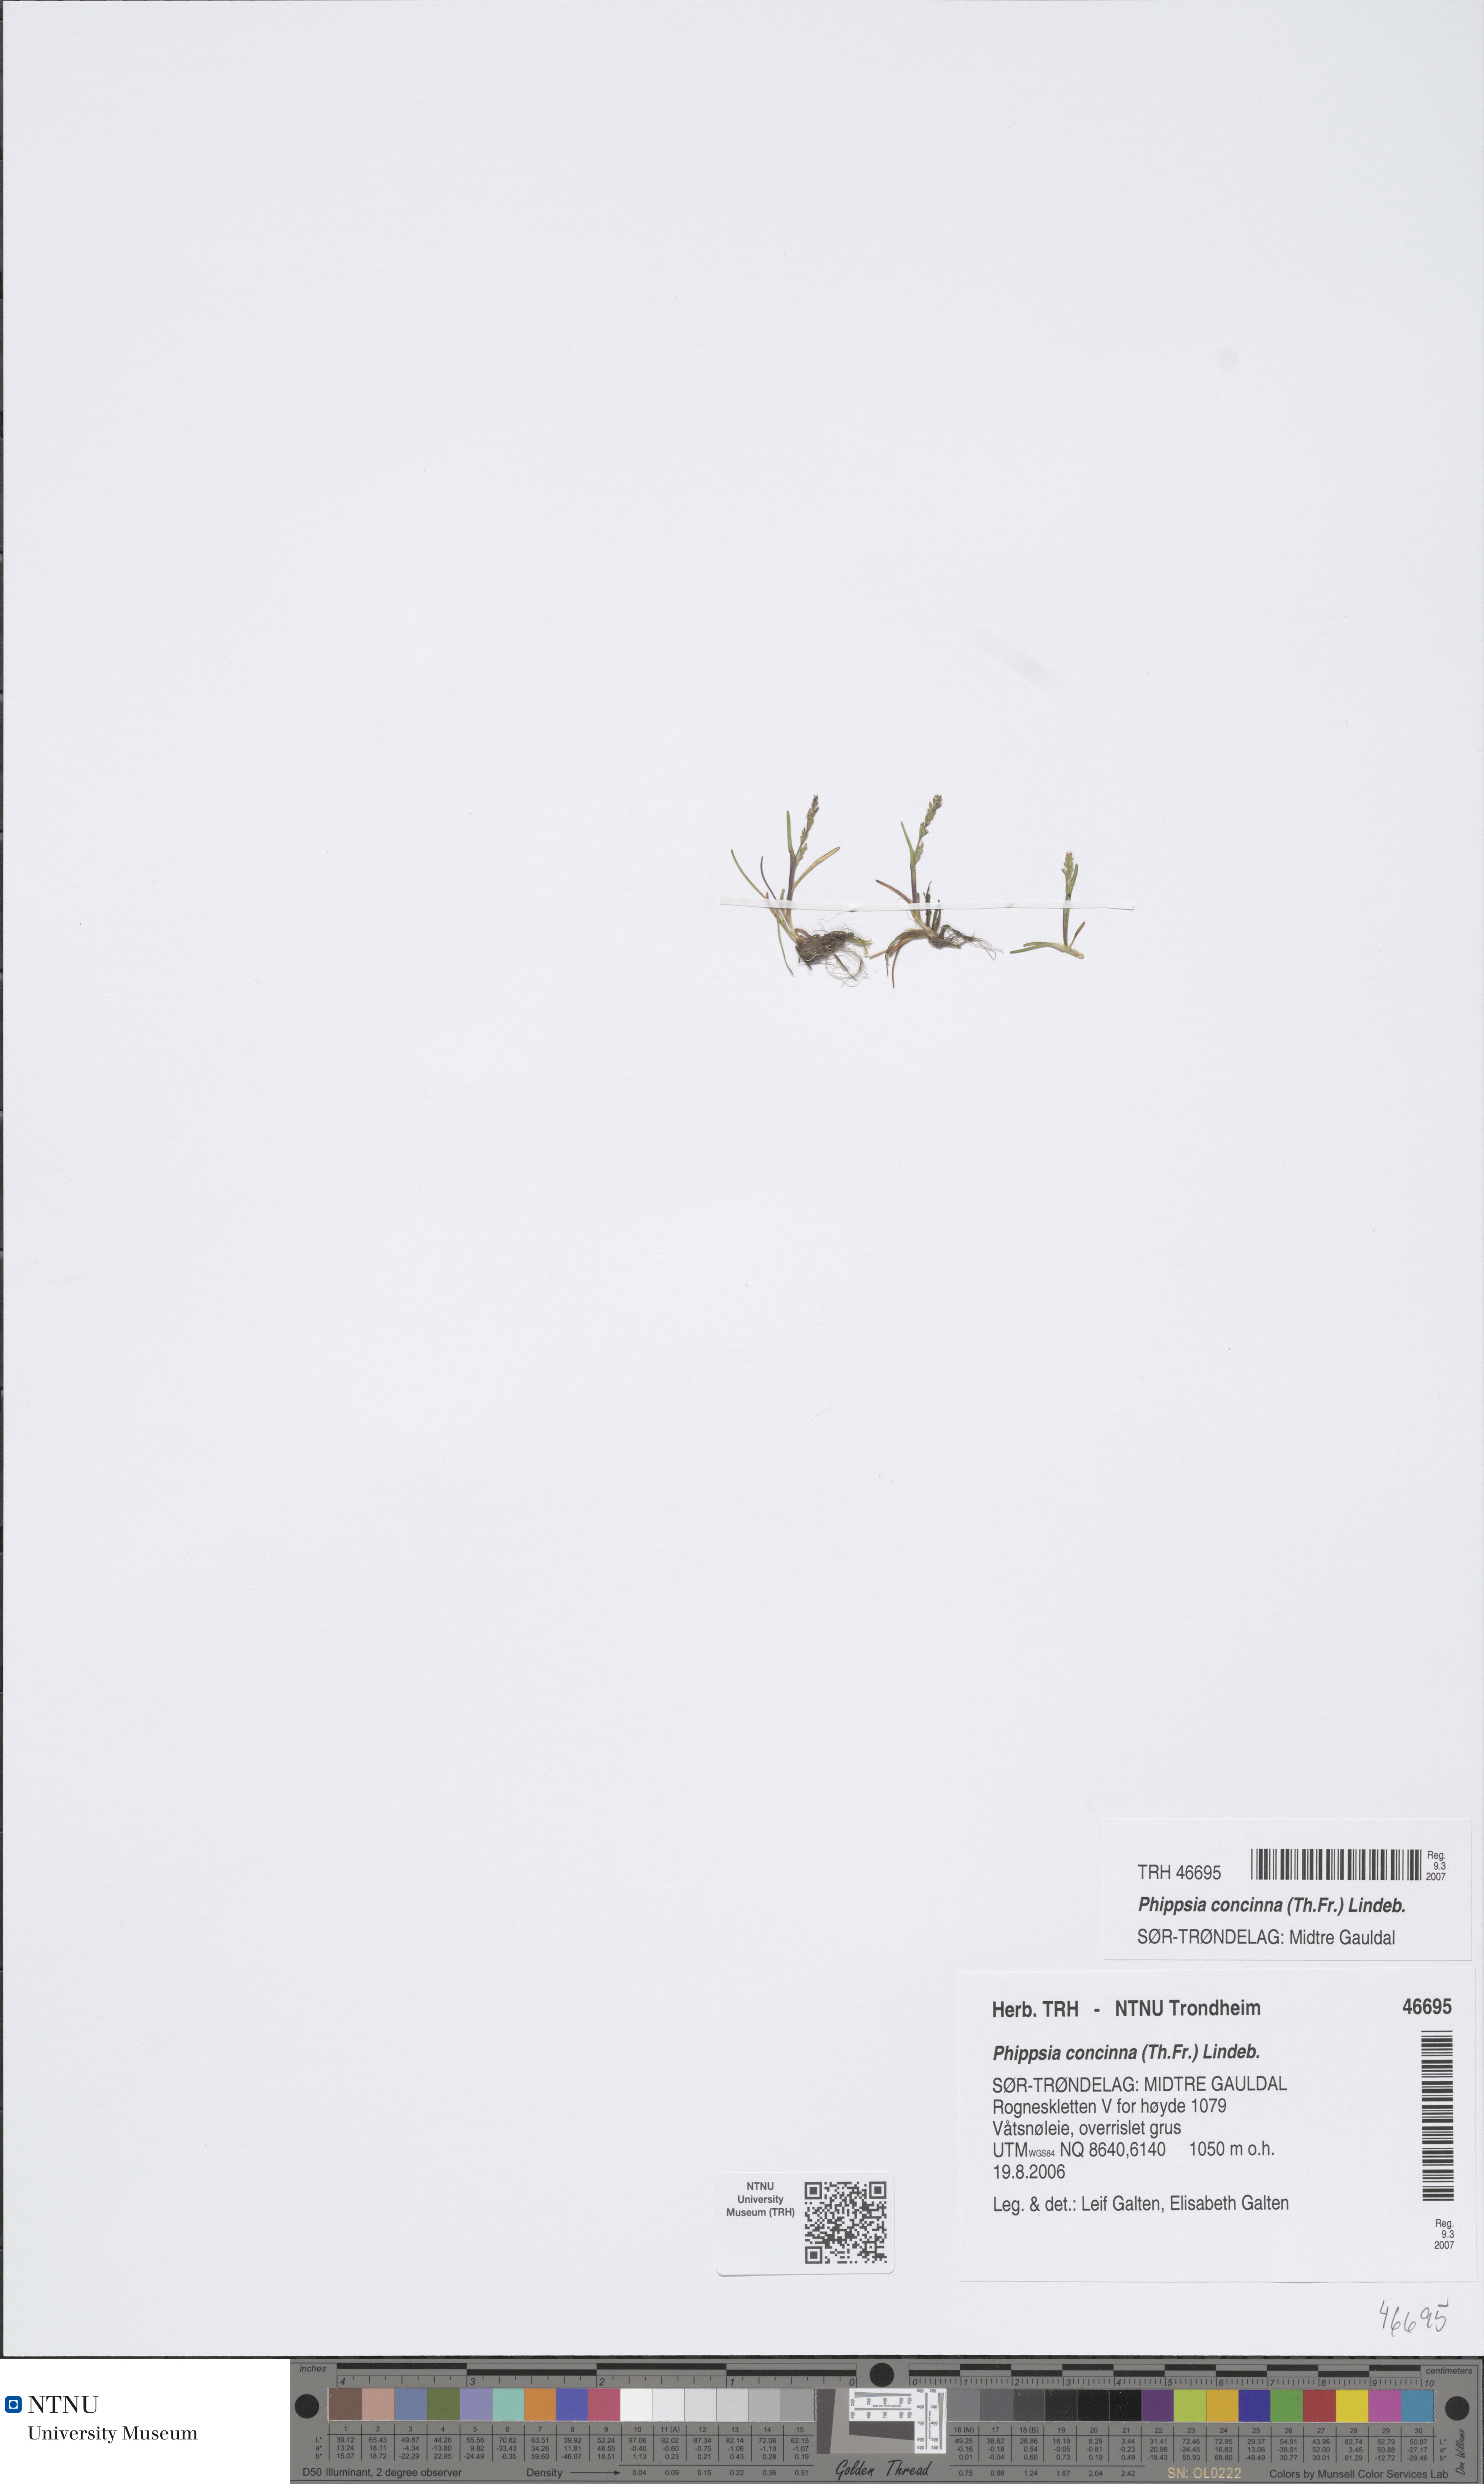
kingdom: Plantae
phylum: Tracheophyta
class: Liliopsida
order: Poales
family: Poaceae
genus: Phippsia
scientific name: Phippsia concinna
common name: Snowgrass
